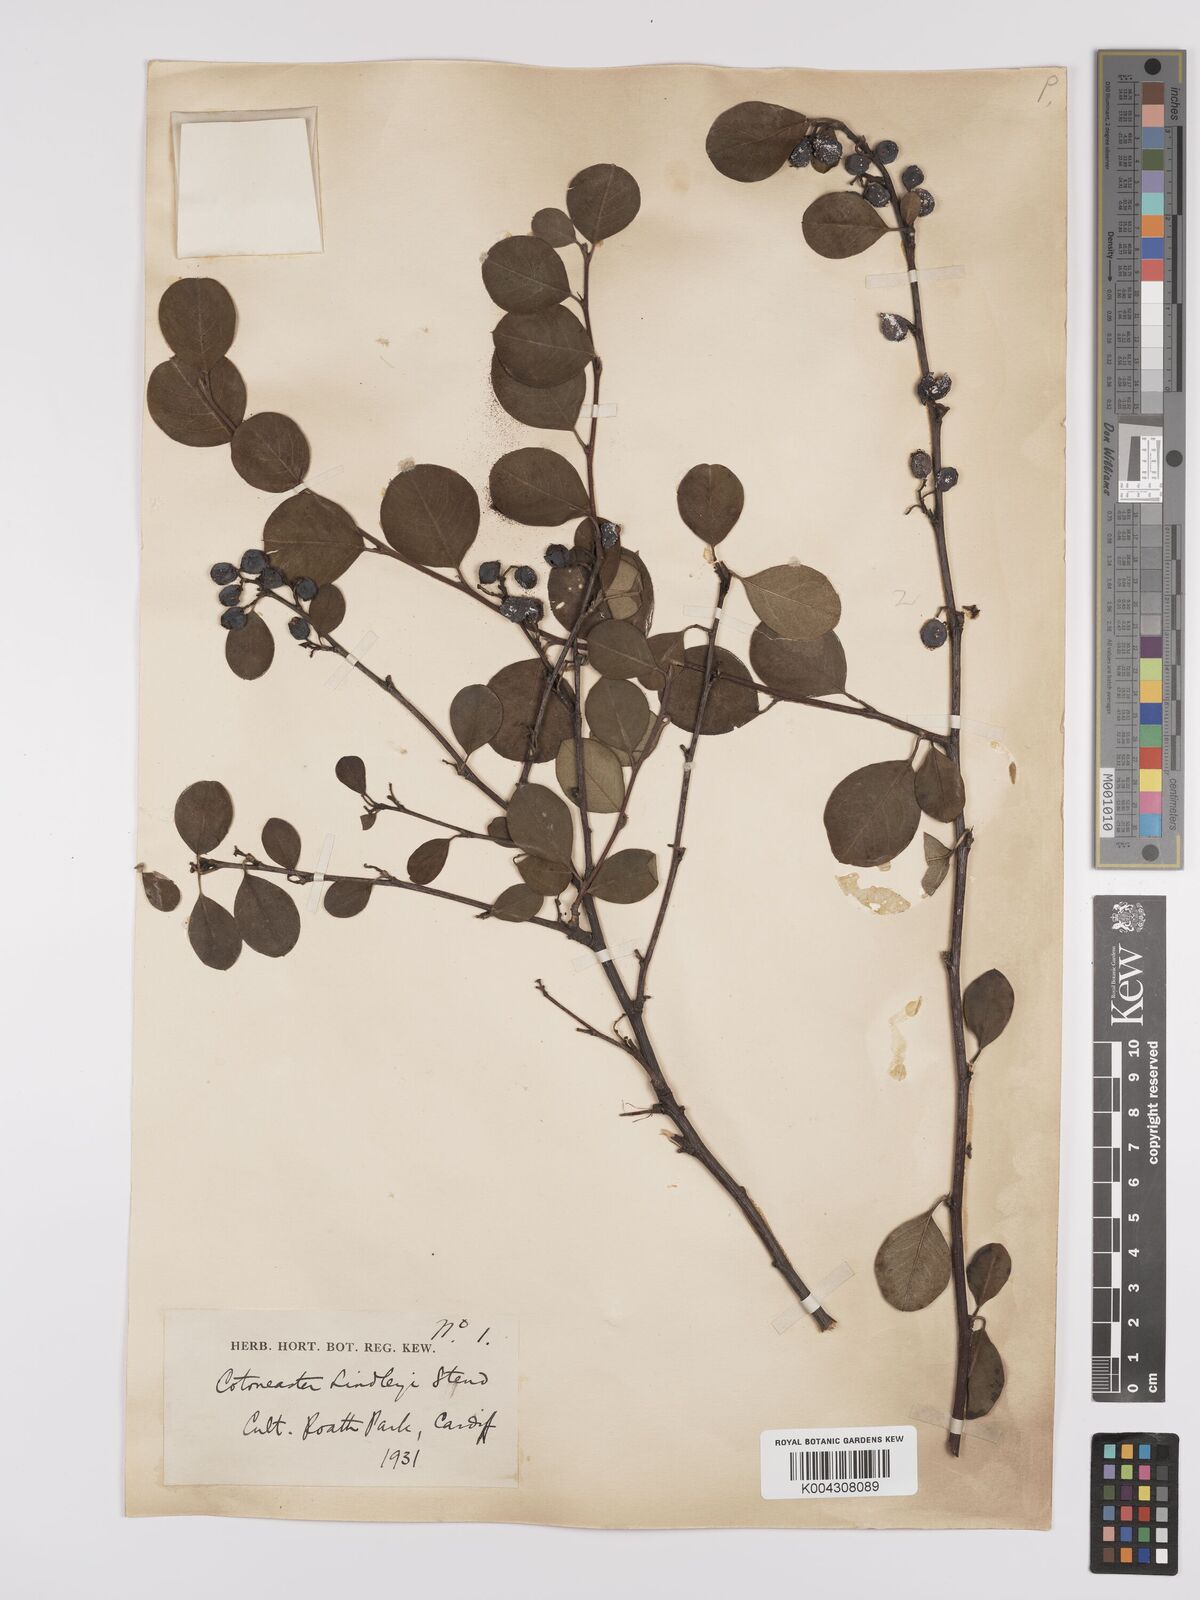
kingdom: Plantae
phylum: Tracheophyta
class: Magnoliopsida
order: Rosales
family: Rosaceae
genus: Cotoneaster
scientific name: Cotoneaster lindleyi
